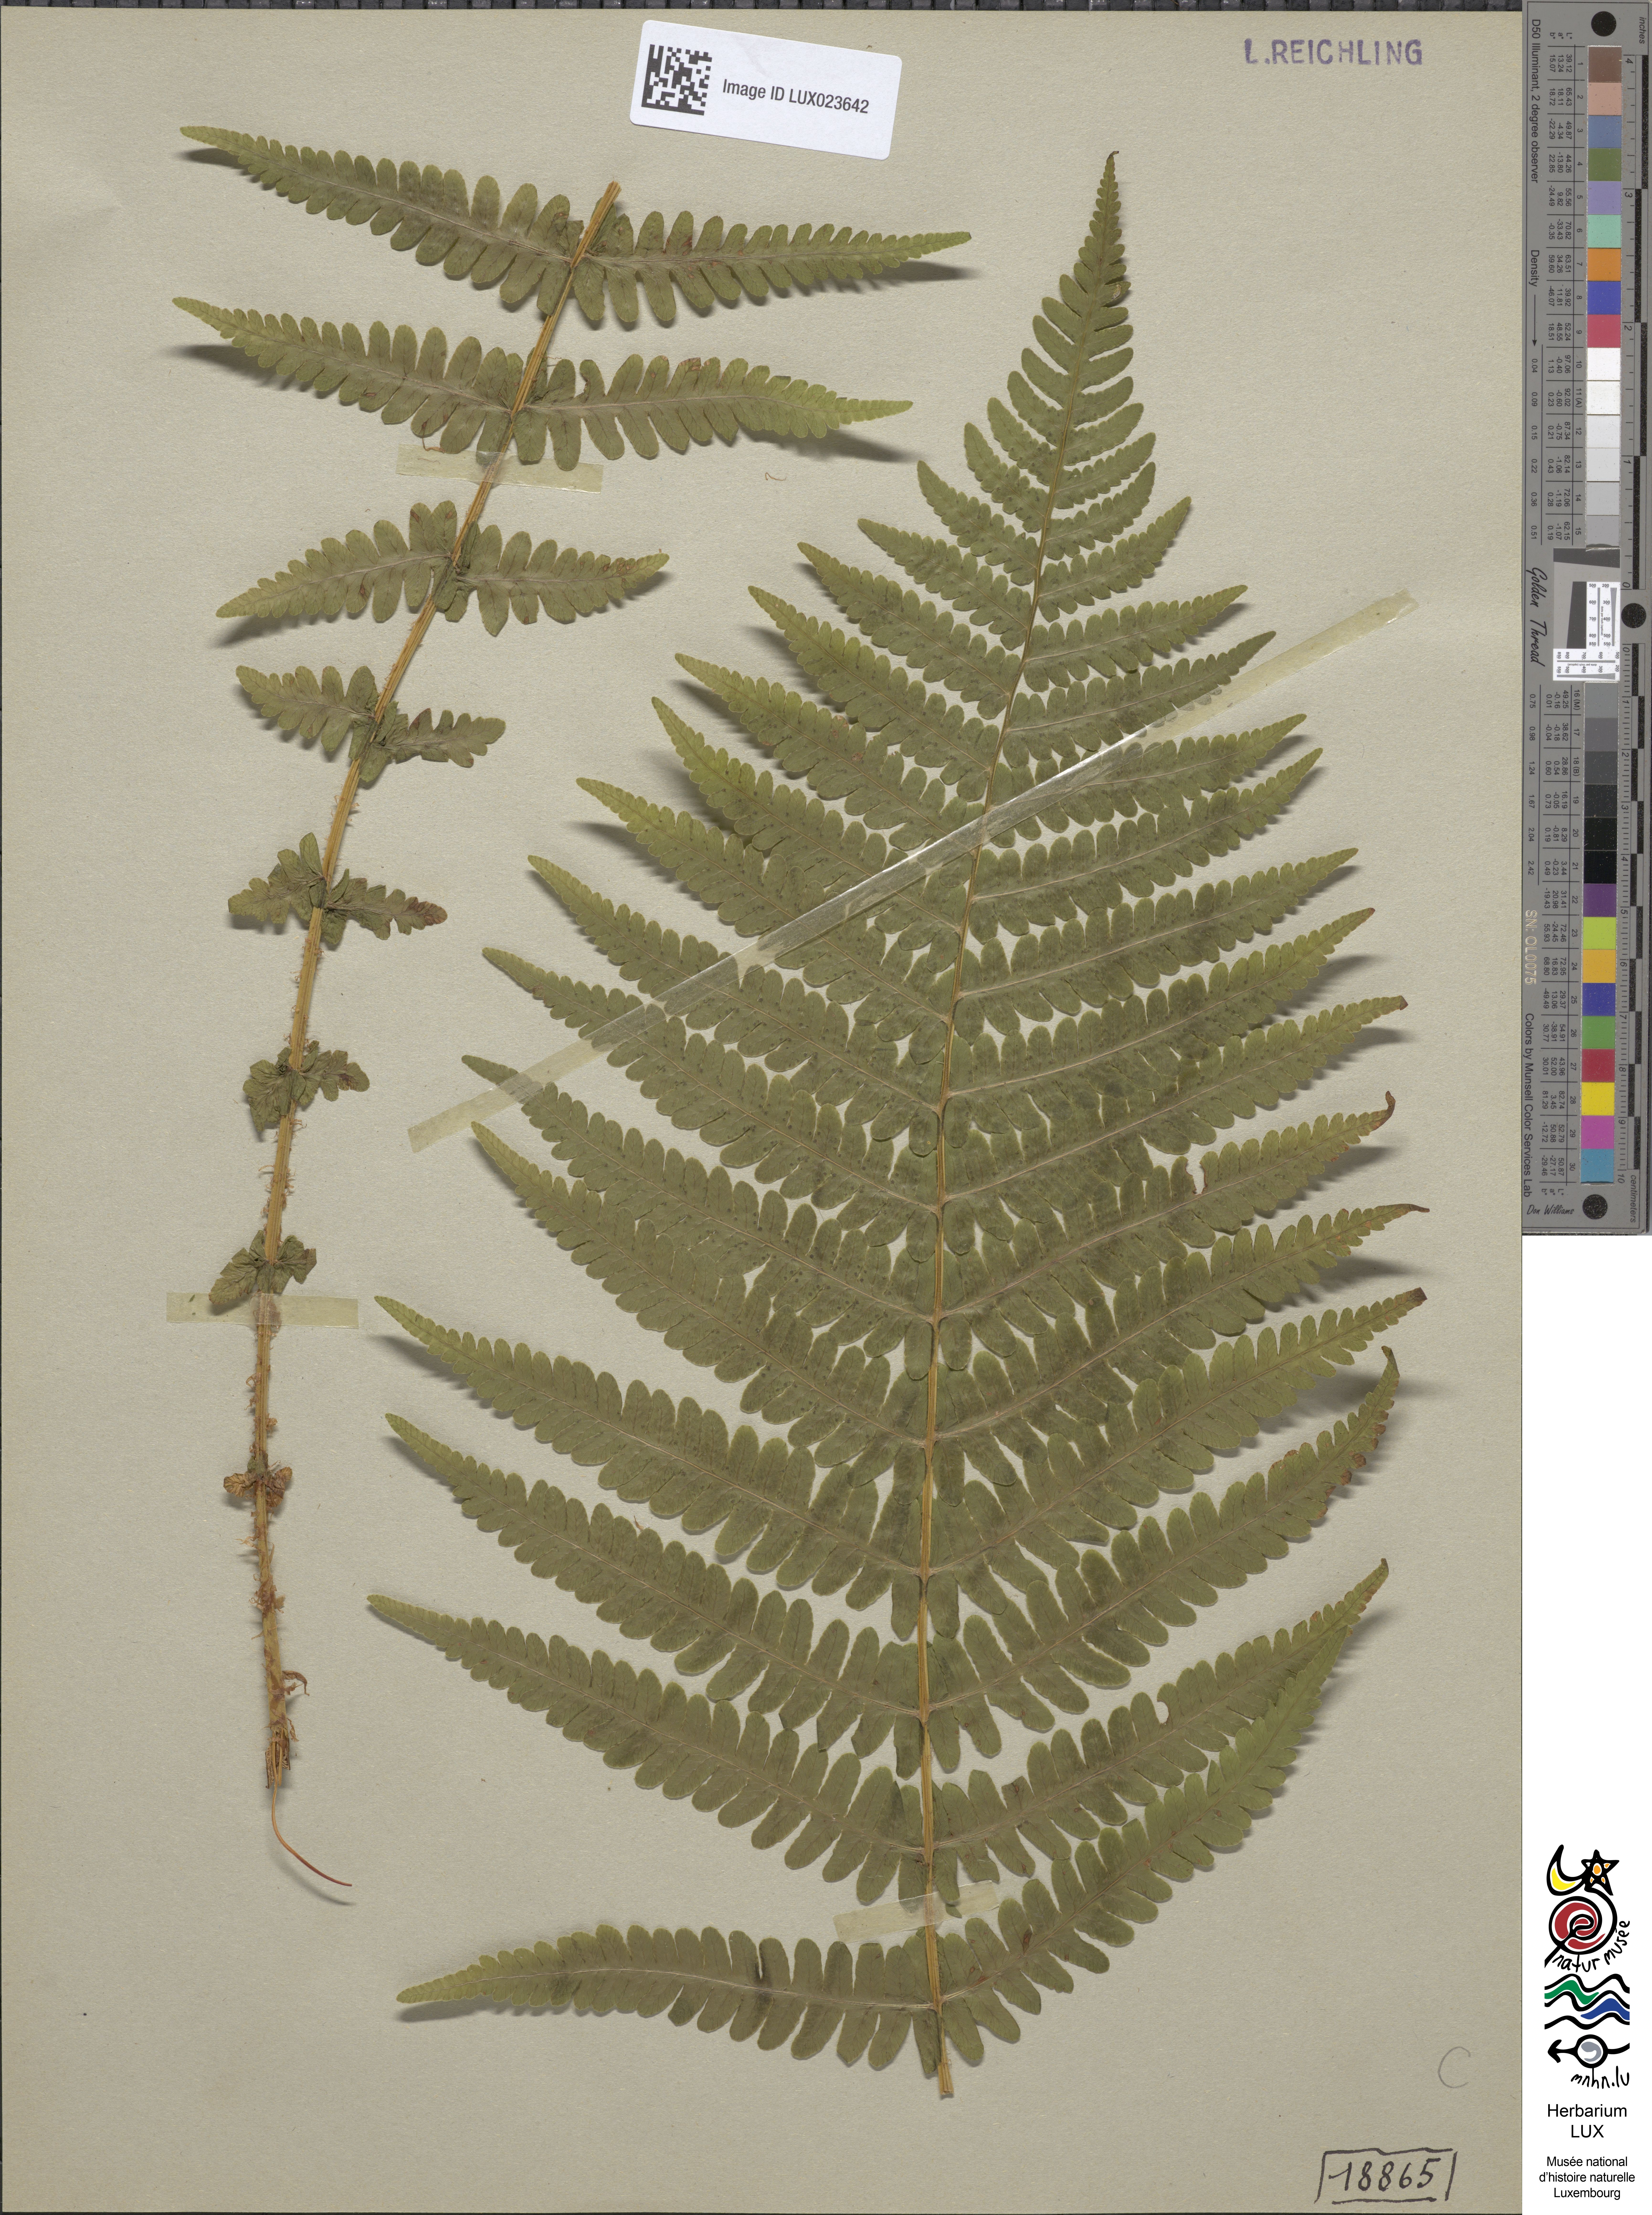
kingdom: Plantae
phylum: Tracheophyta
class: Polypodiopsida
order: Polypodiales
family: Thelypteridaceae
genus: Oreopteris
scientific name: Oreopteris limbosperma
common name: Lemon-scented fern
